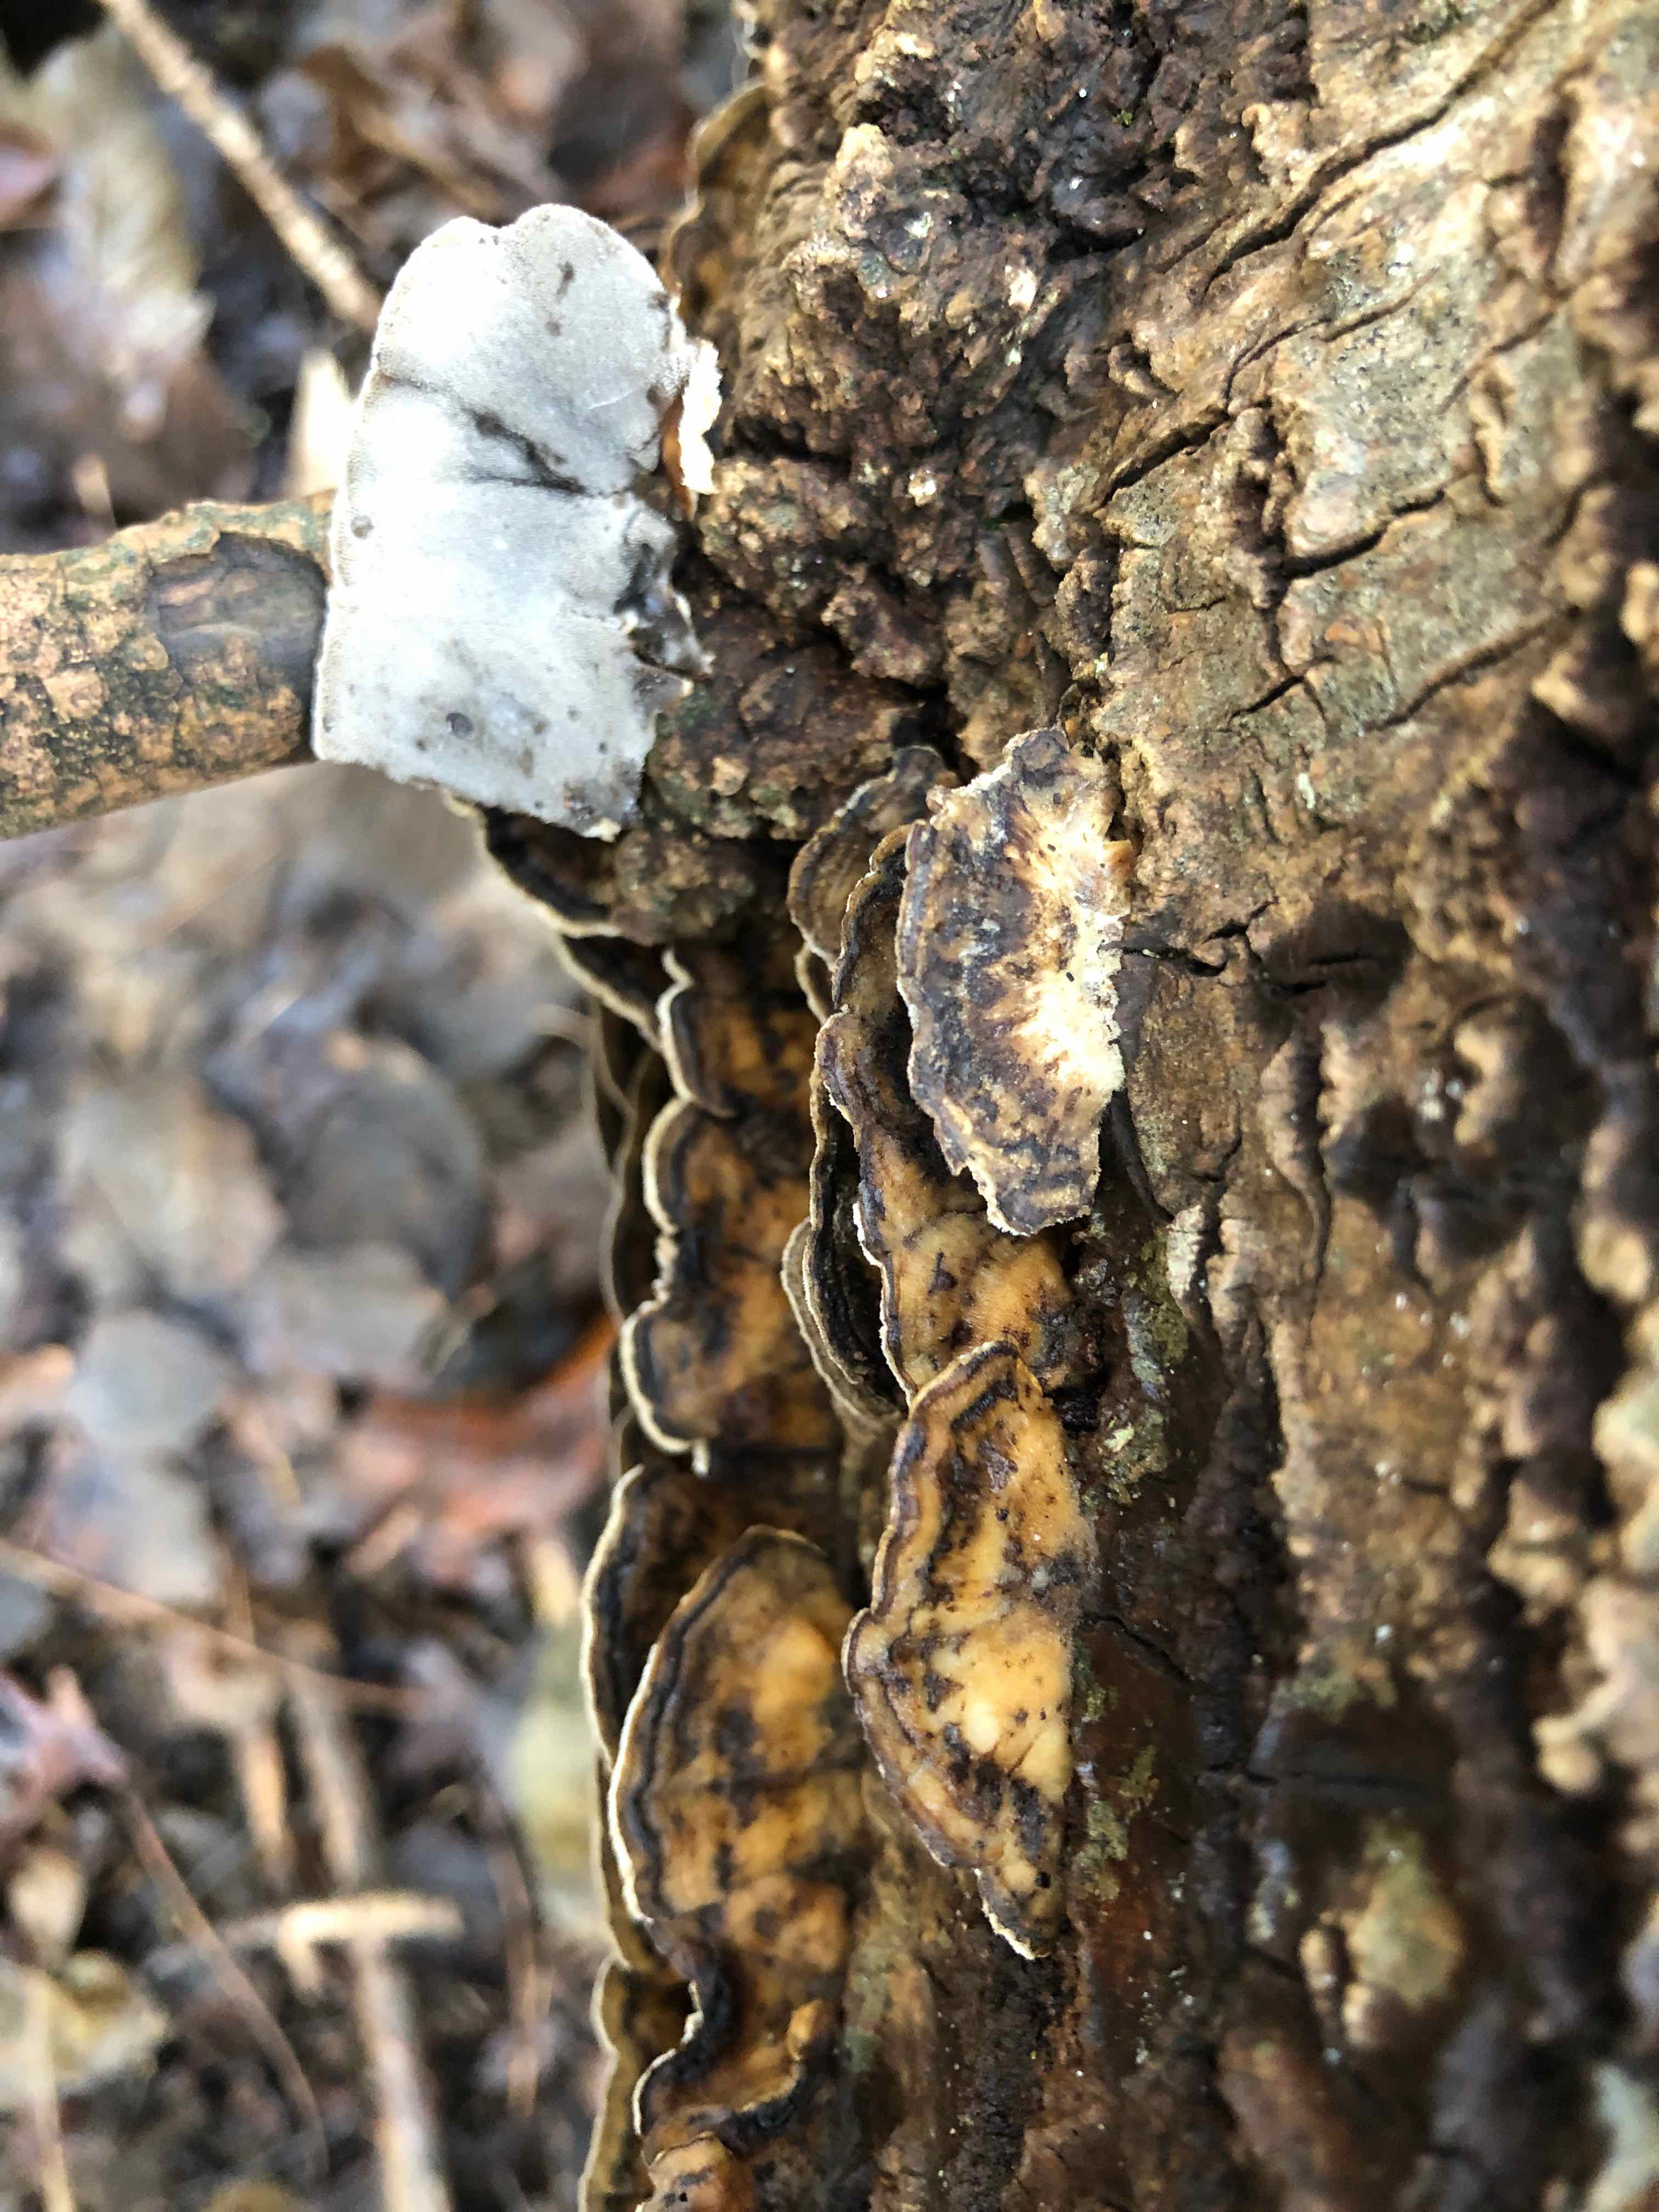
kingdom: Fungi
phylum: Basidiomycota
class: Agaricomycetes
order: Polyporales
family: Phanerochaetaceae
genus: Bjerkandera
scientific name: Bjerkandera adusta
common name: sveden sodporesvamp
